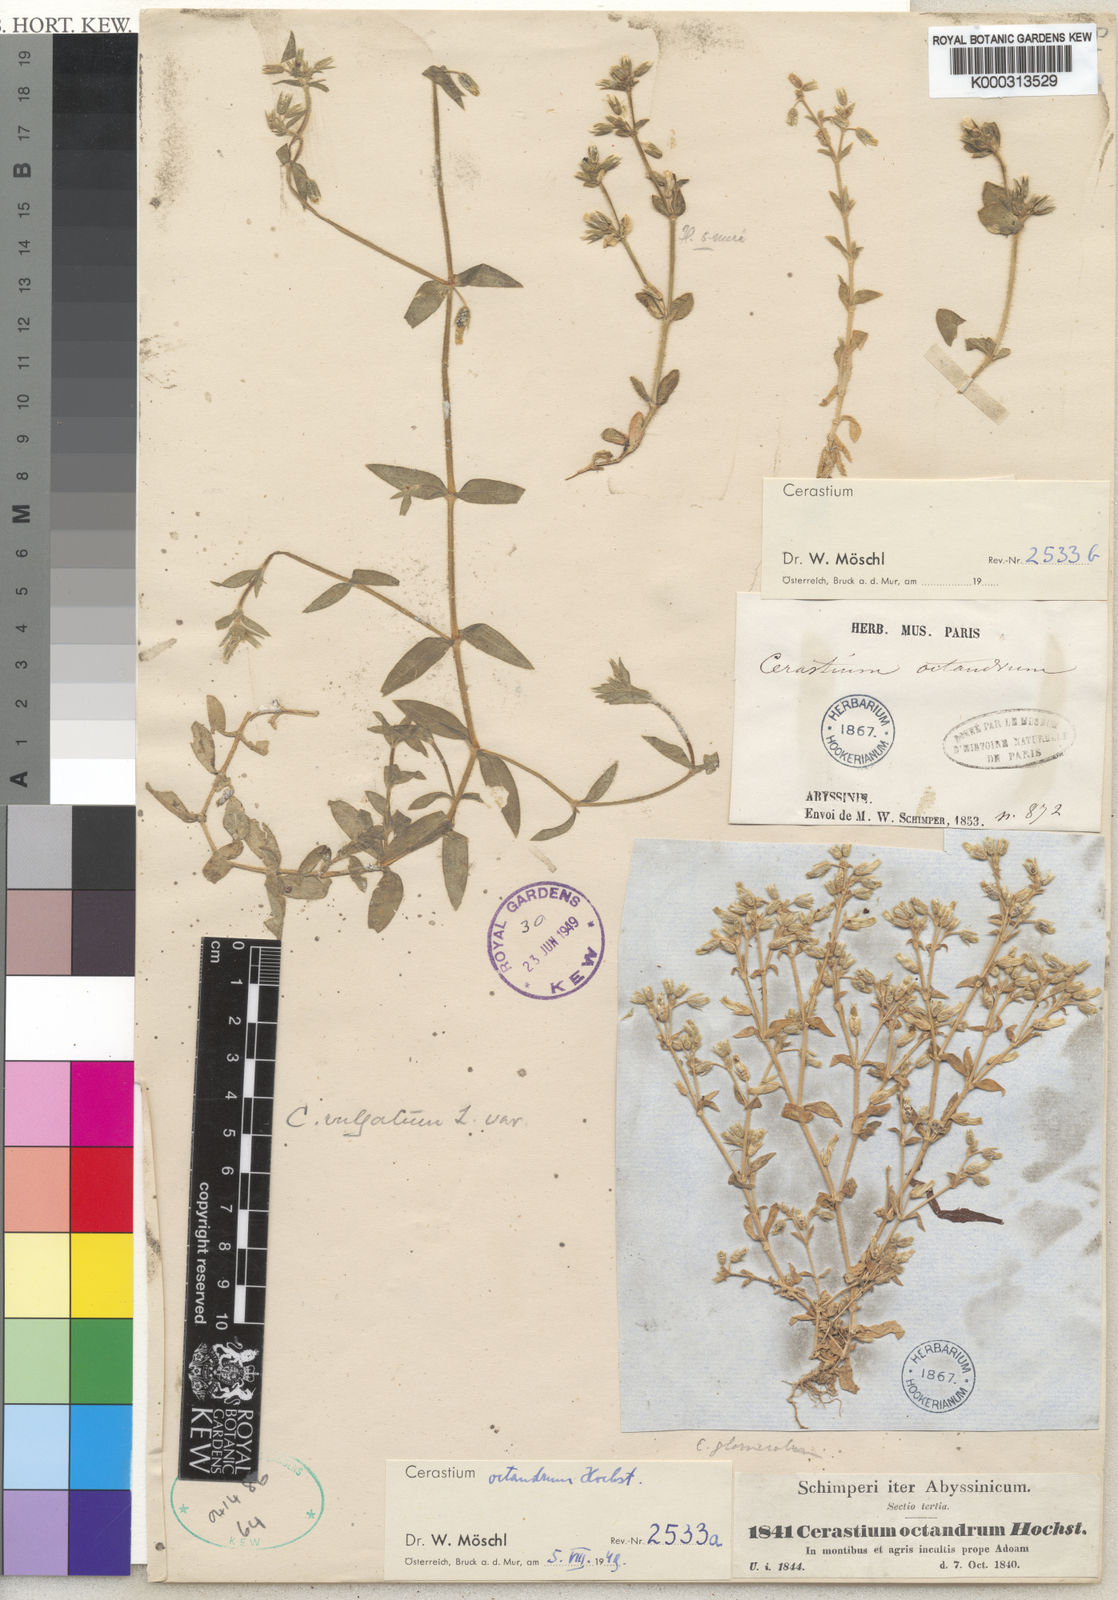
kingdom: Plantae
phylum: Tracheophyta
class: Magnoliopsida
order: Caryophyllales
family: Caryophyllaceae
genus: Cerastium
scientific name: Cerastium octandrum
